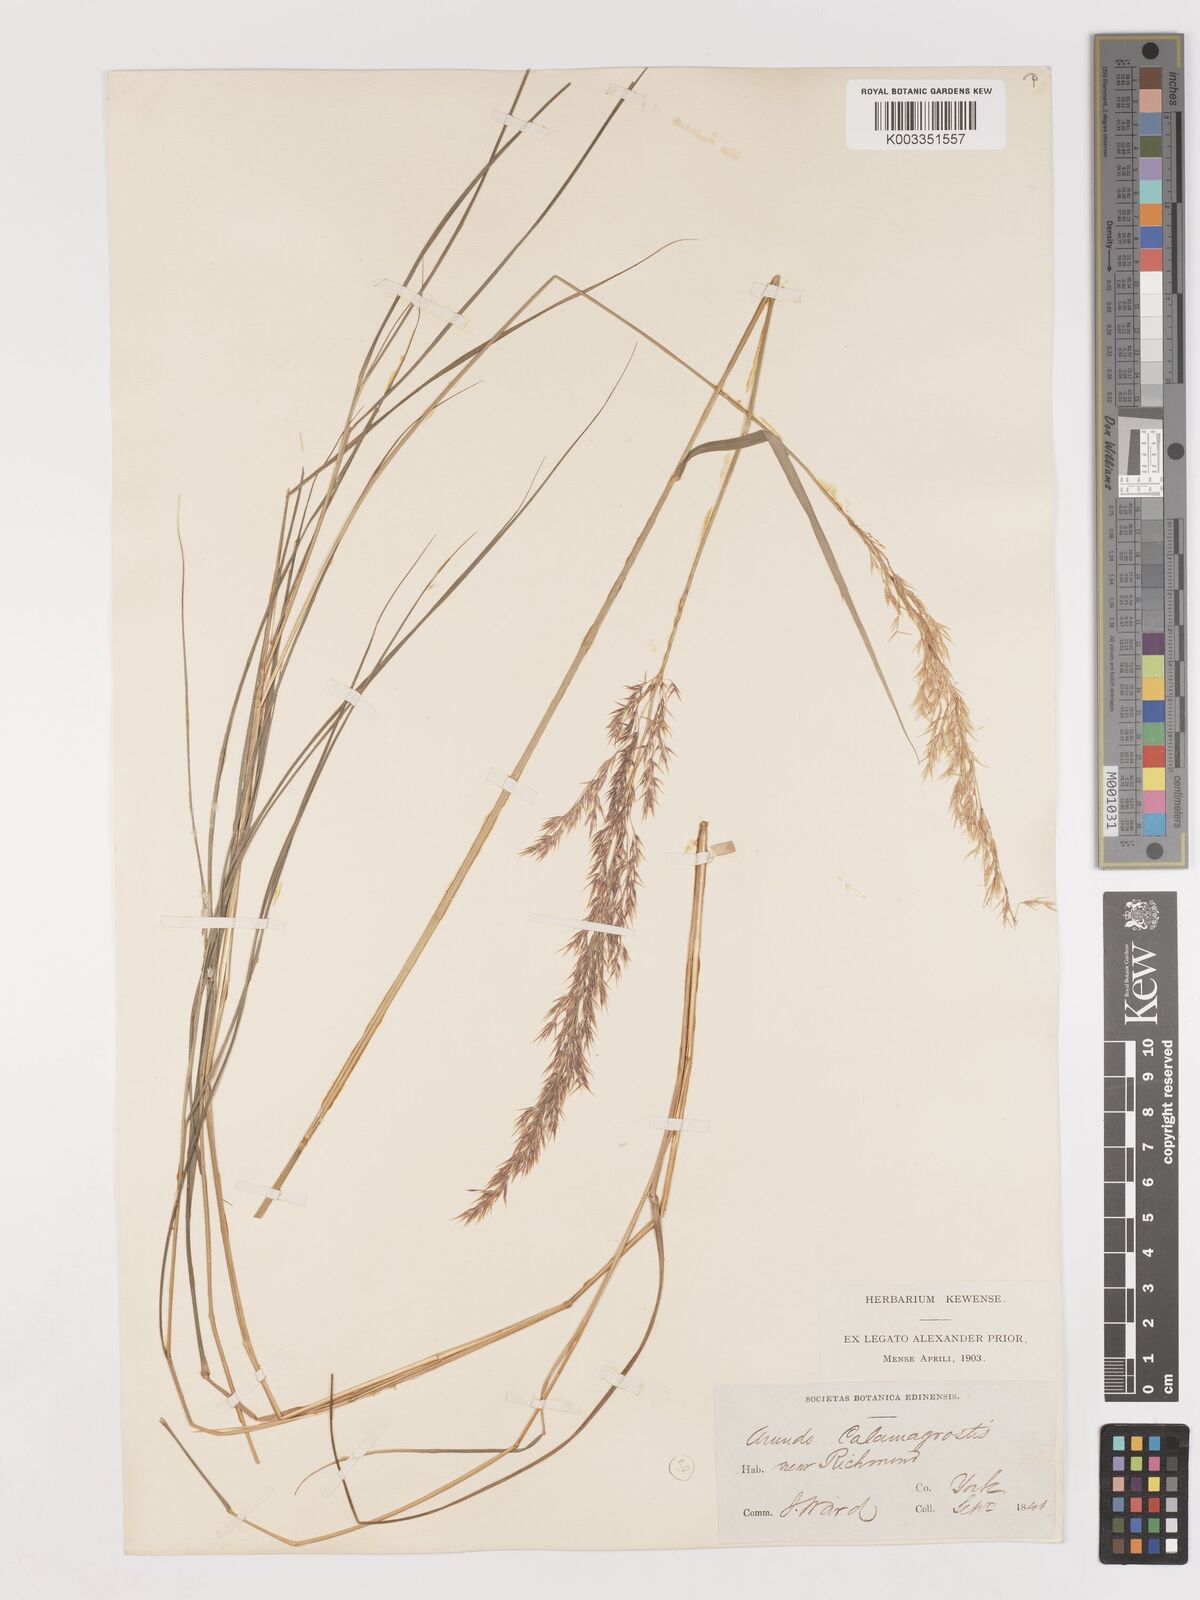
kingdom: Plantae
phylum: Tracheophyta
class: Liliopsida
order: Poales
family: Poaceae
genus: Calamagrostis
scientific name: Calamagrostis canescens
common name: Purple small-reed
